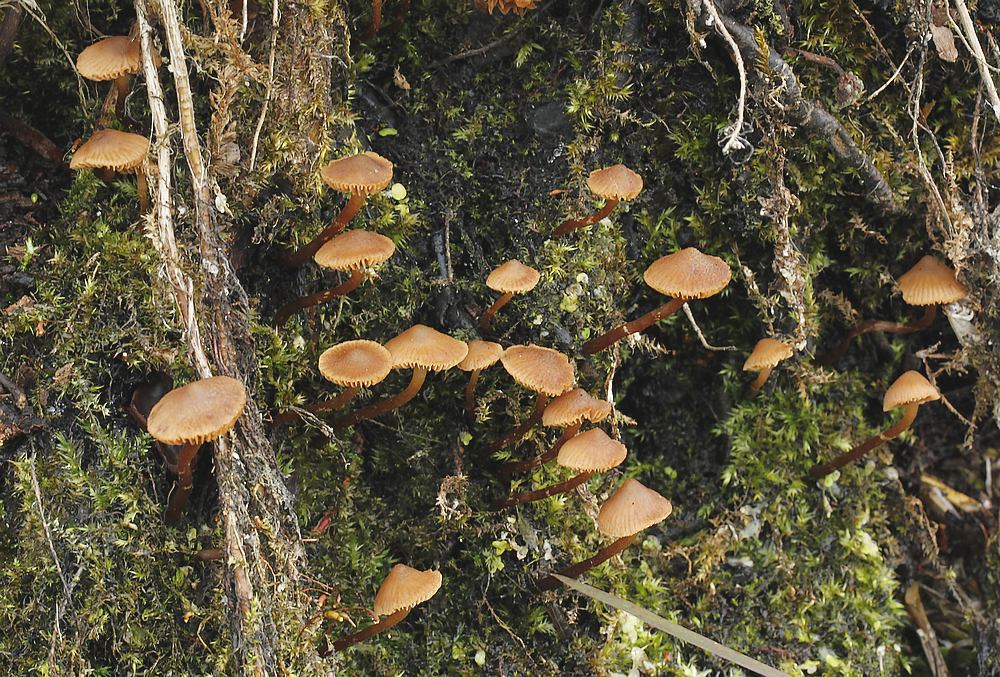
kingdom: Fungi
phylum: Basidiomycota
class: Agaricomycetes
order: Agaricales
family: Hymenogastraceae
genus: Naucoria
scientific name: Naucoria scolecina
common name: mørk elle-knaphat
